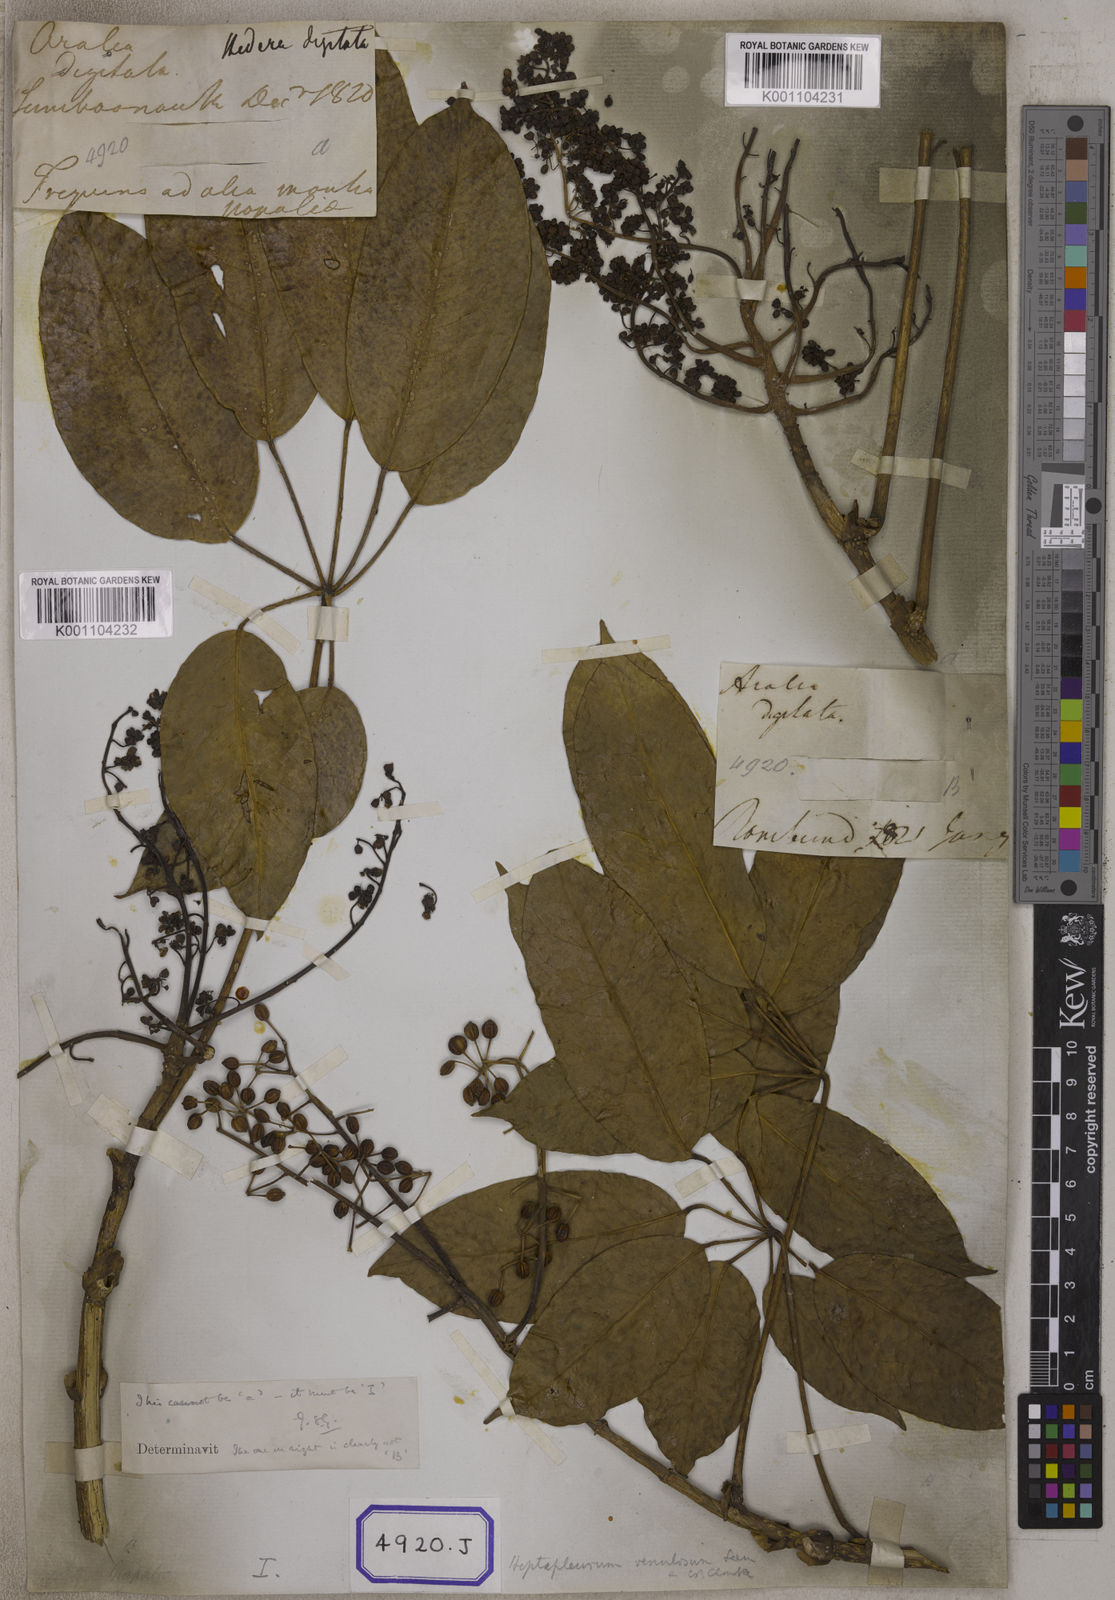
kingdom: Plantae
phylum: Tracheophyta
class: Magnoliopsida
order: Apiales
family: Araliaceae
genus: Hedera
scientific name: Hedera
